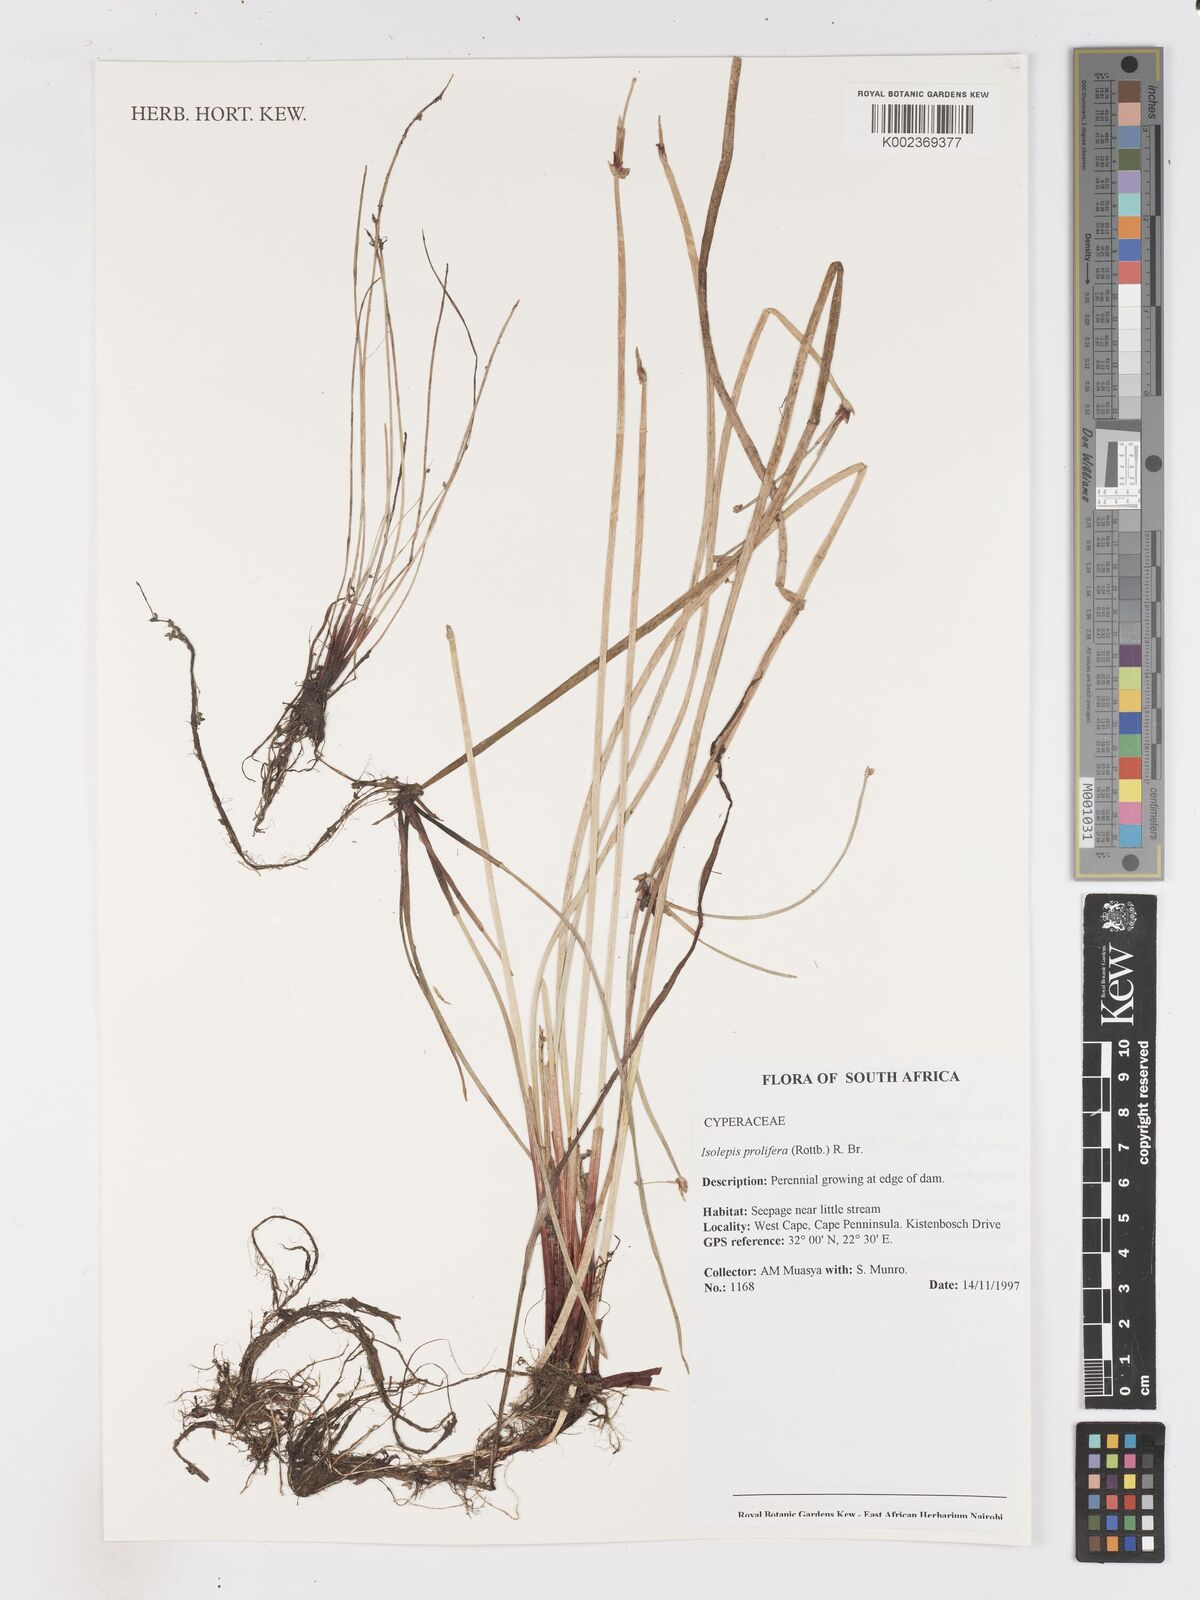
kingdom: Plantae
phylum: Tracheophyta
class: Liliopsida
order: Poales
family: Cyperaceae
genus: Isolepis
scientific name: Isolepis prolifera
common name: Proliferating bulrush
